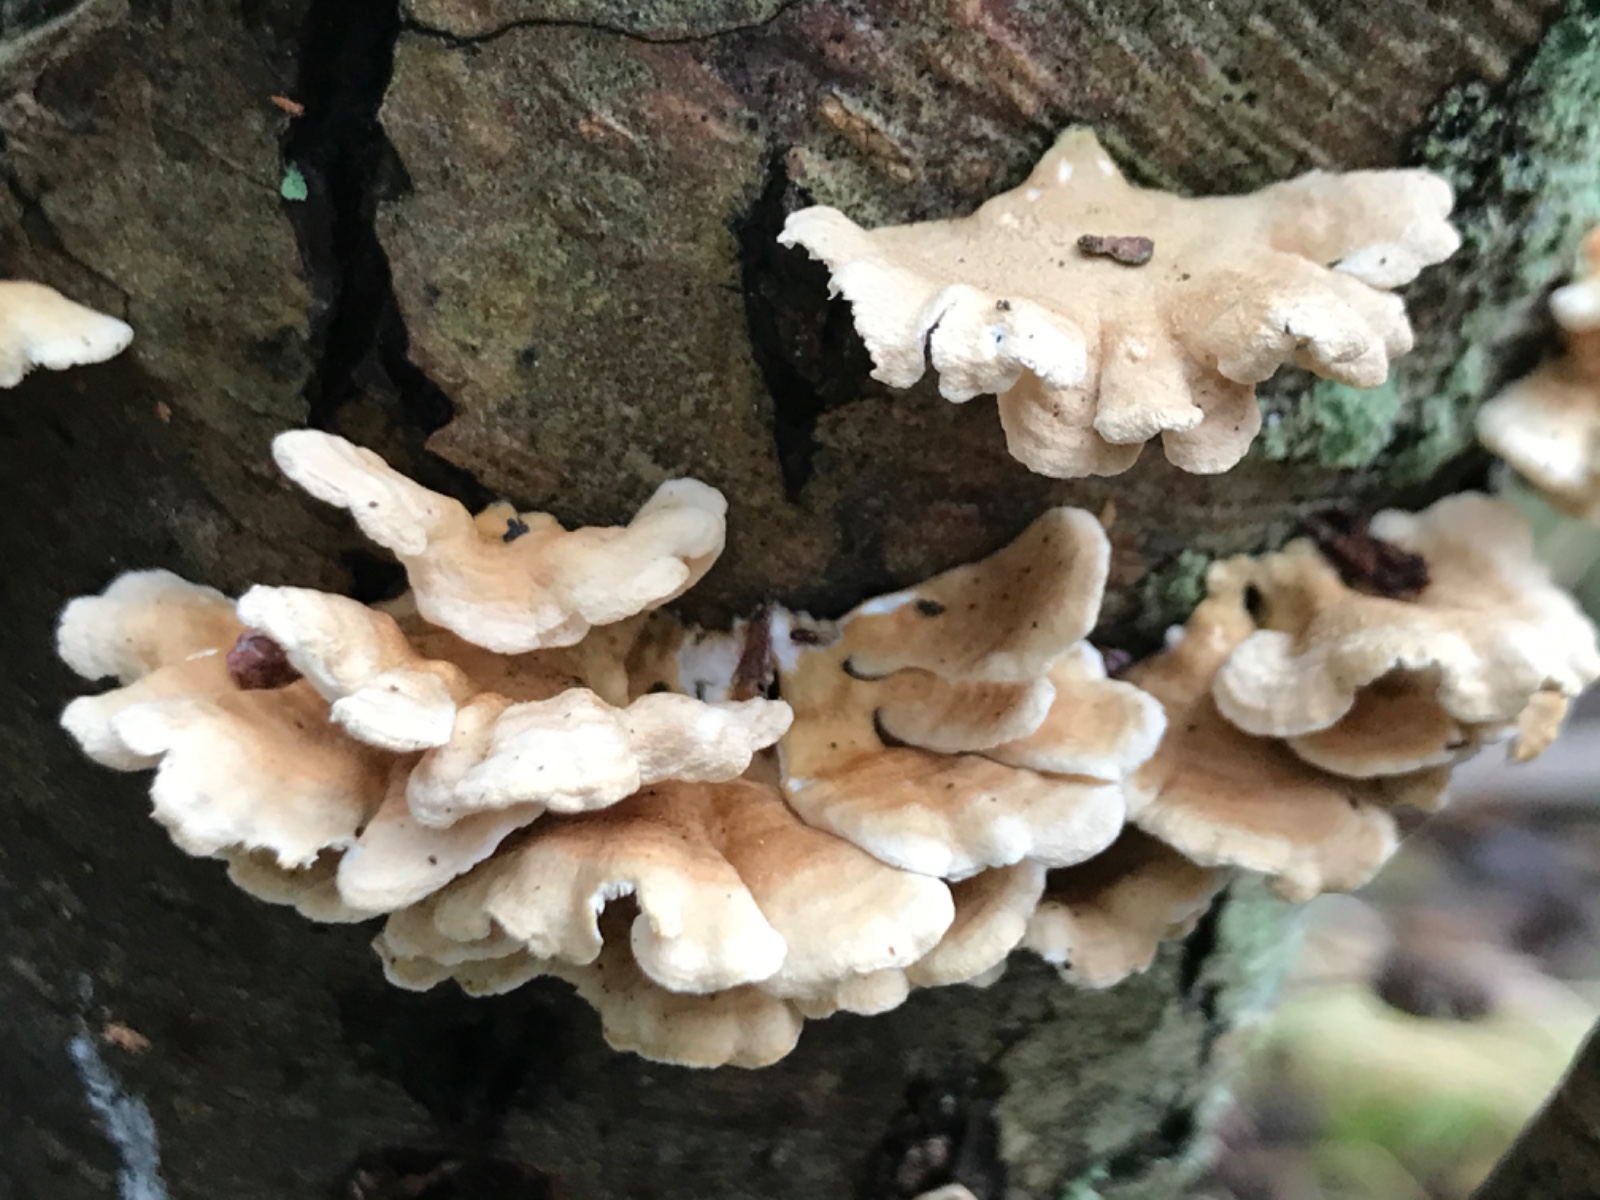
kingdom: Fungi
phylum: Basidiomycota
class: Agaricomycetes
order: Amylocorticiales
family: Amylocorticiaceae
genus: Plicaturopsis
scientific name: Plicaturopsis crispa
